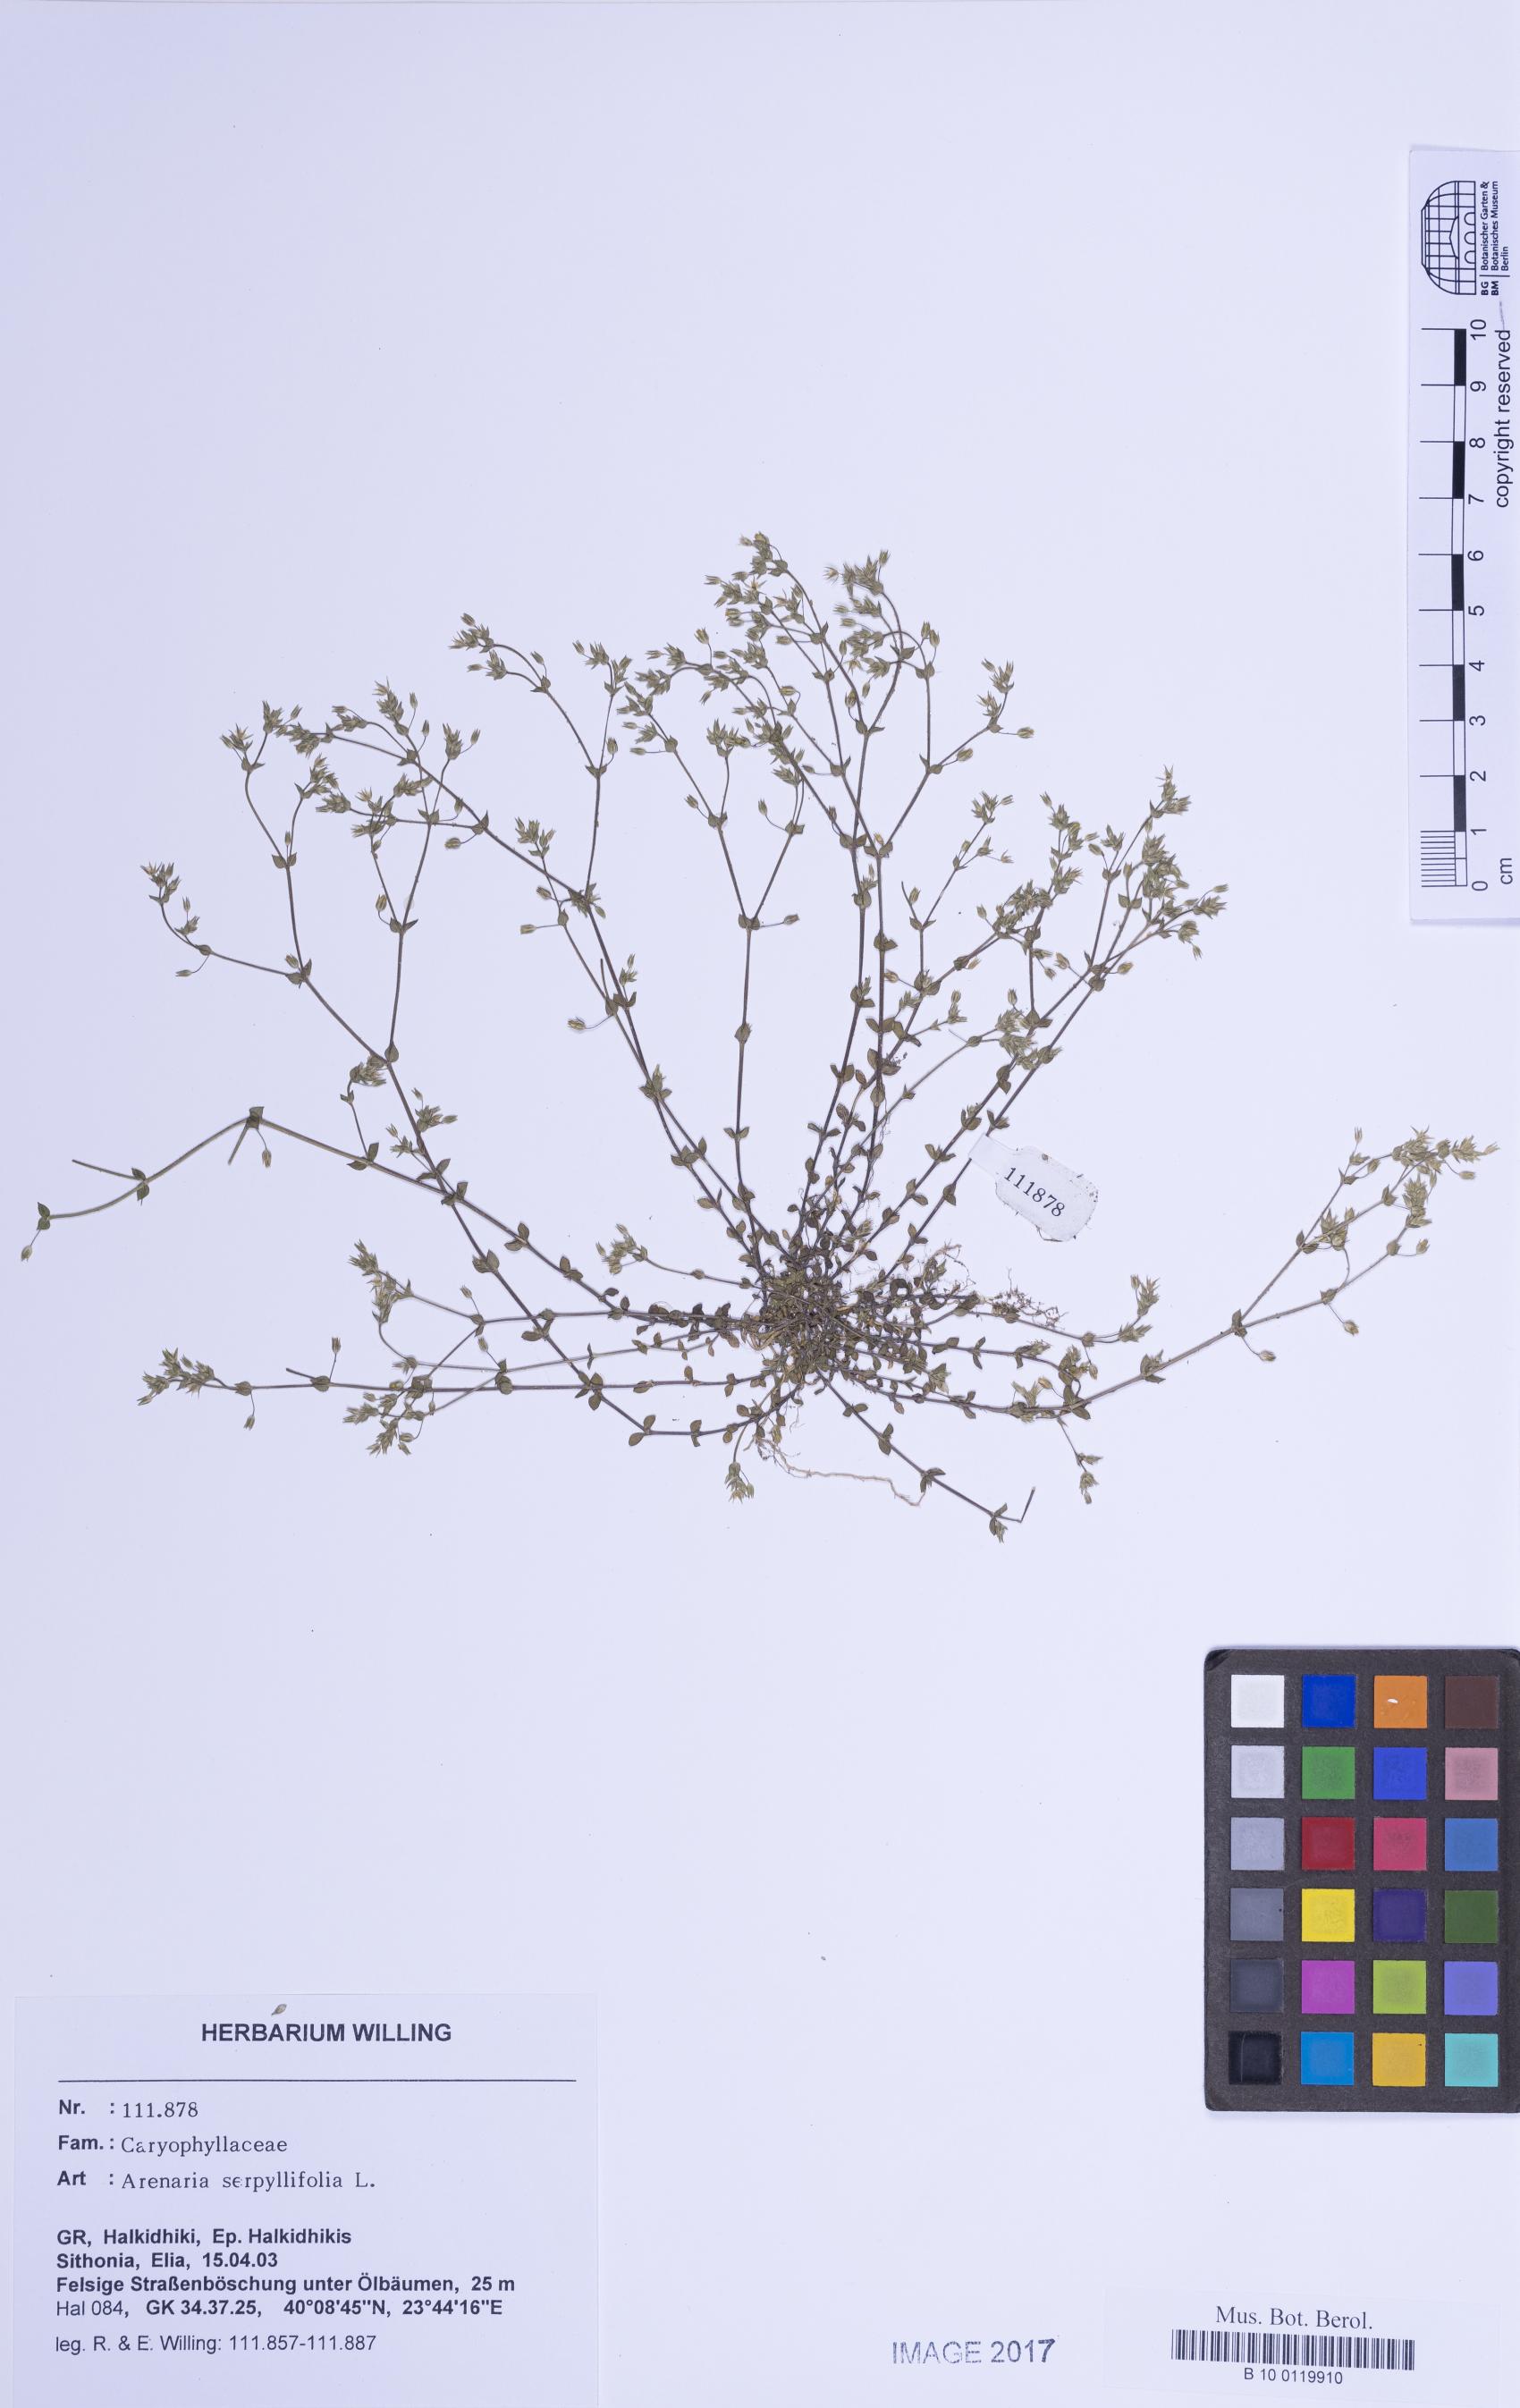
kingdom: Plantae
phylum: Tracheophyta
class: Magnoliopsida
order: Caryophyllales
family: Caryophyllaceae
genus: Arenaria
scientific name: Arenaria serpyllifolia
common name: Thyme-leaved sandwort
